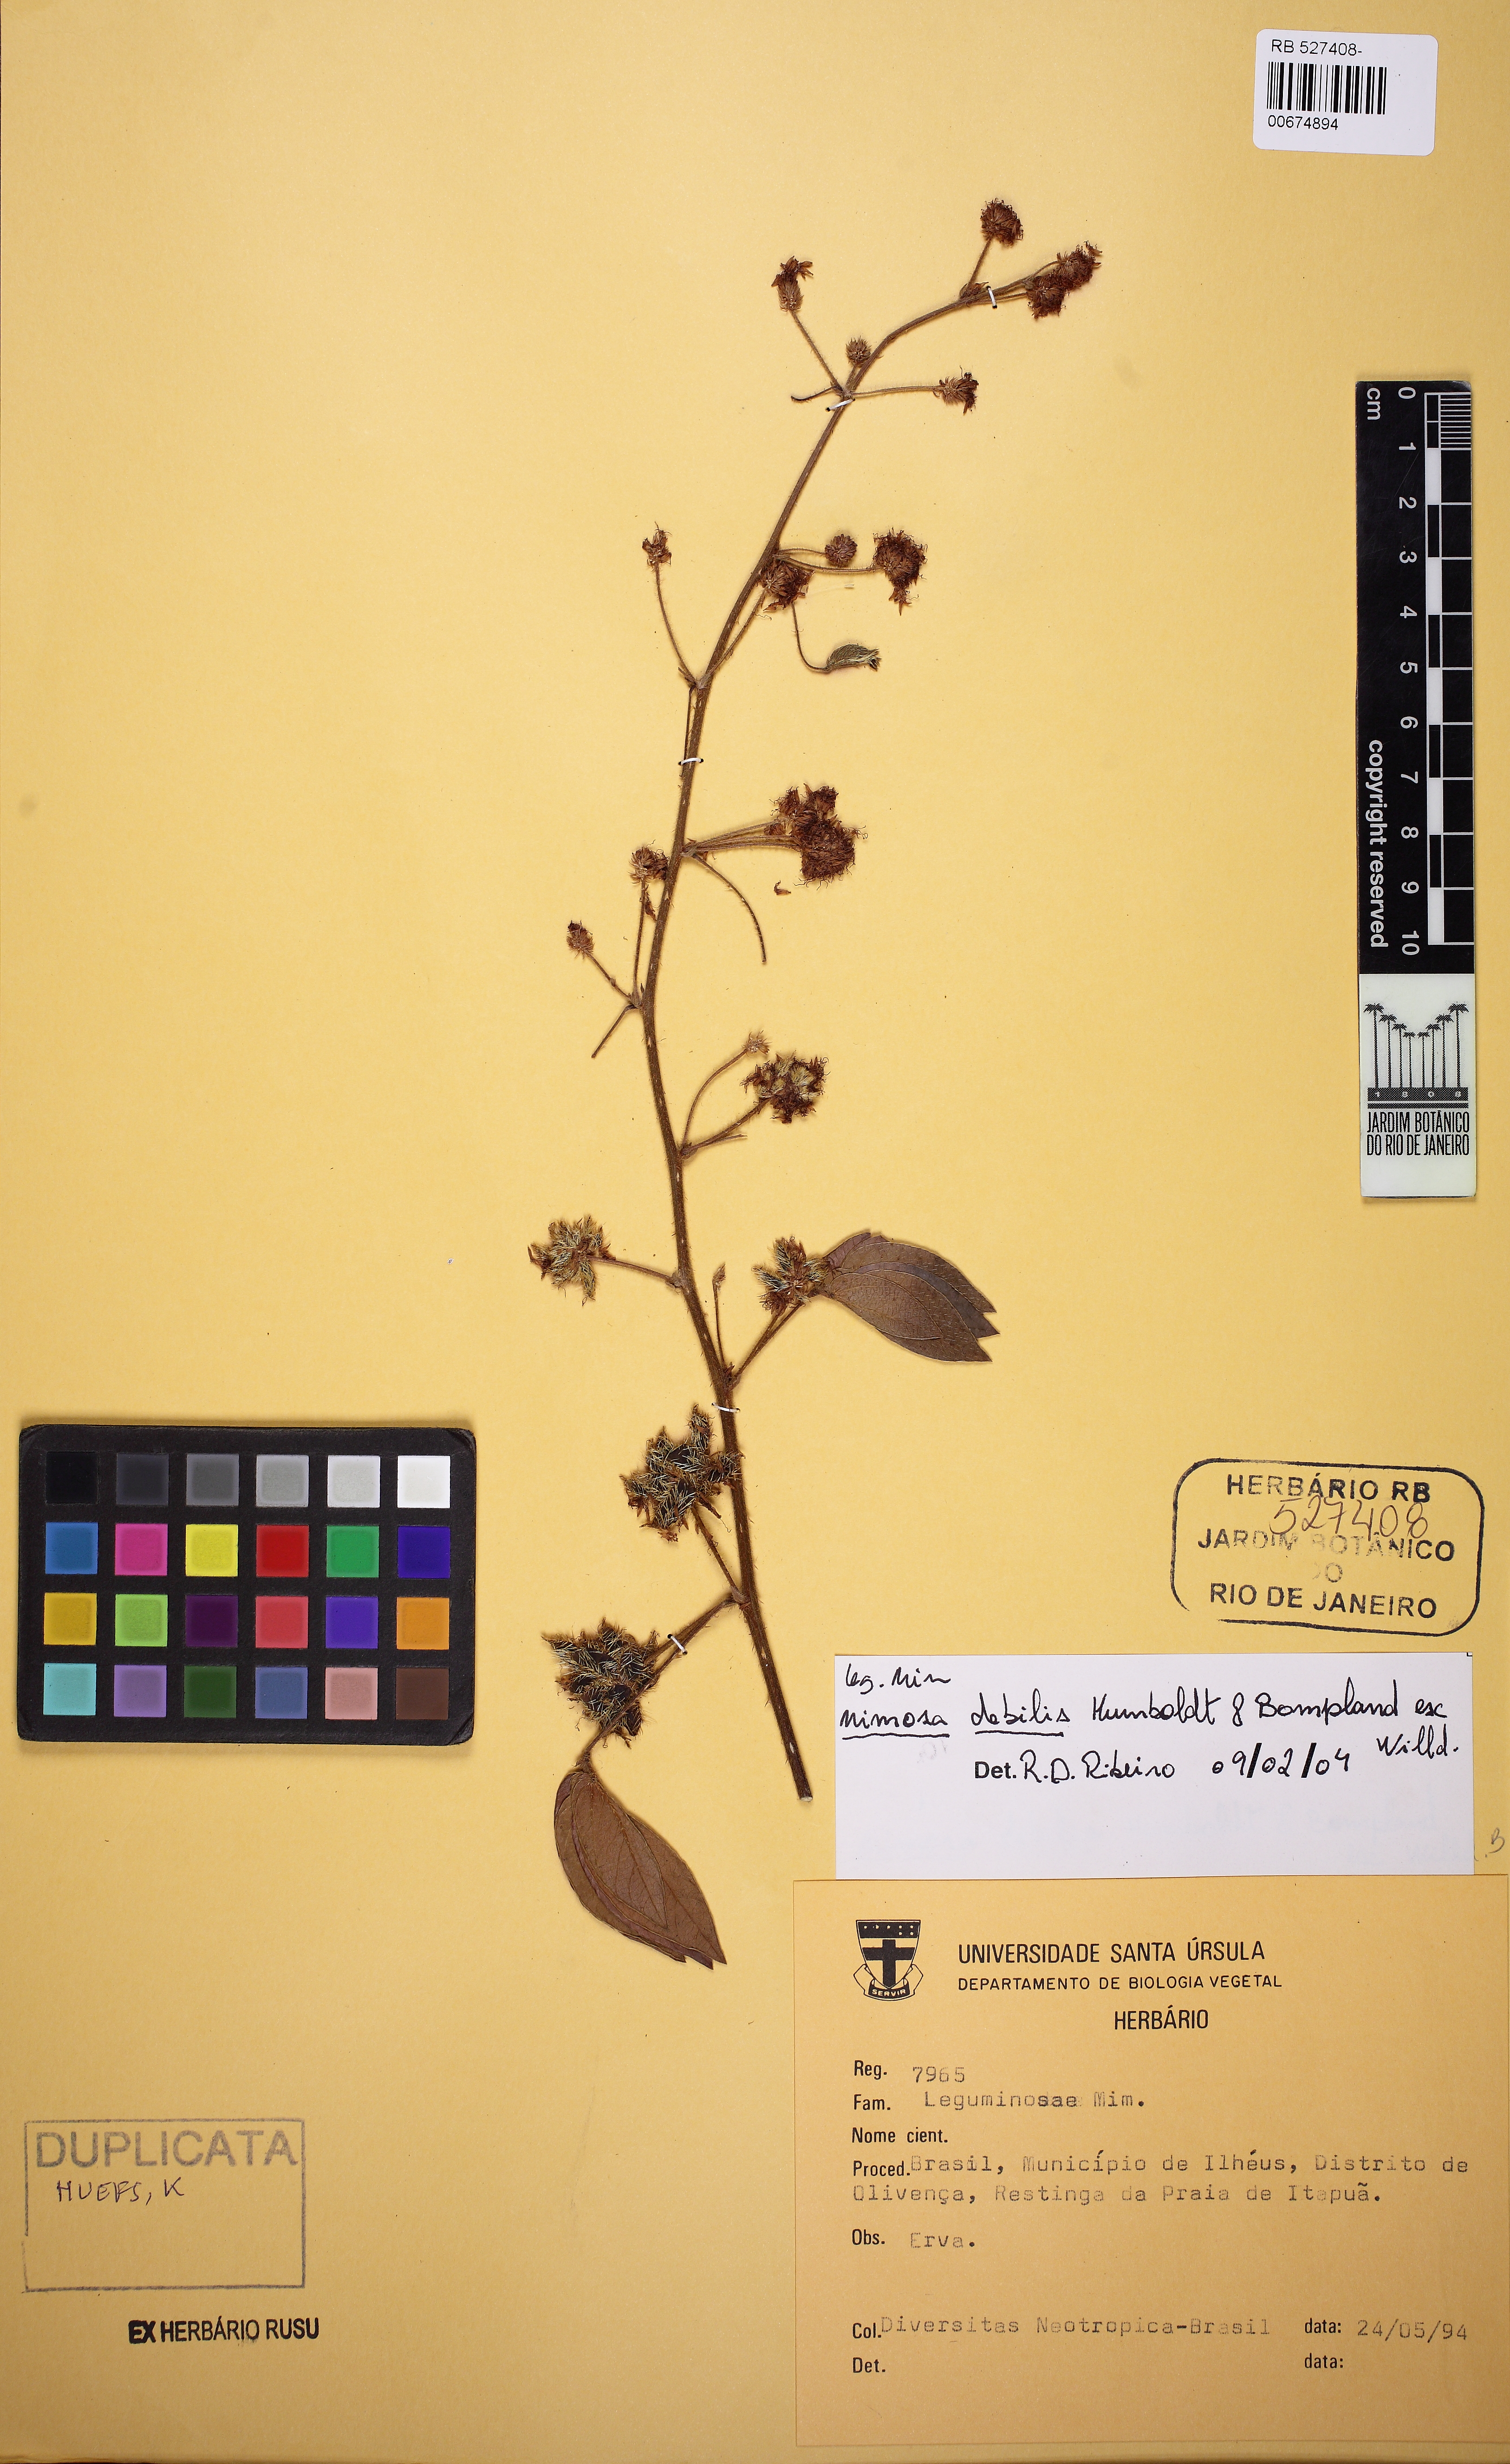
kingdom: Plantae
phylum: Tracheophyta
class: Magnoliopsida
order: Fabales
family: Fabaceae
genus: Mimosa
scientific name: Mimosa debilis
